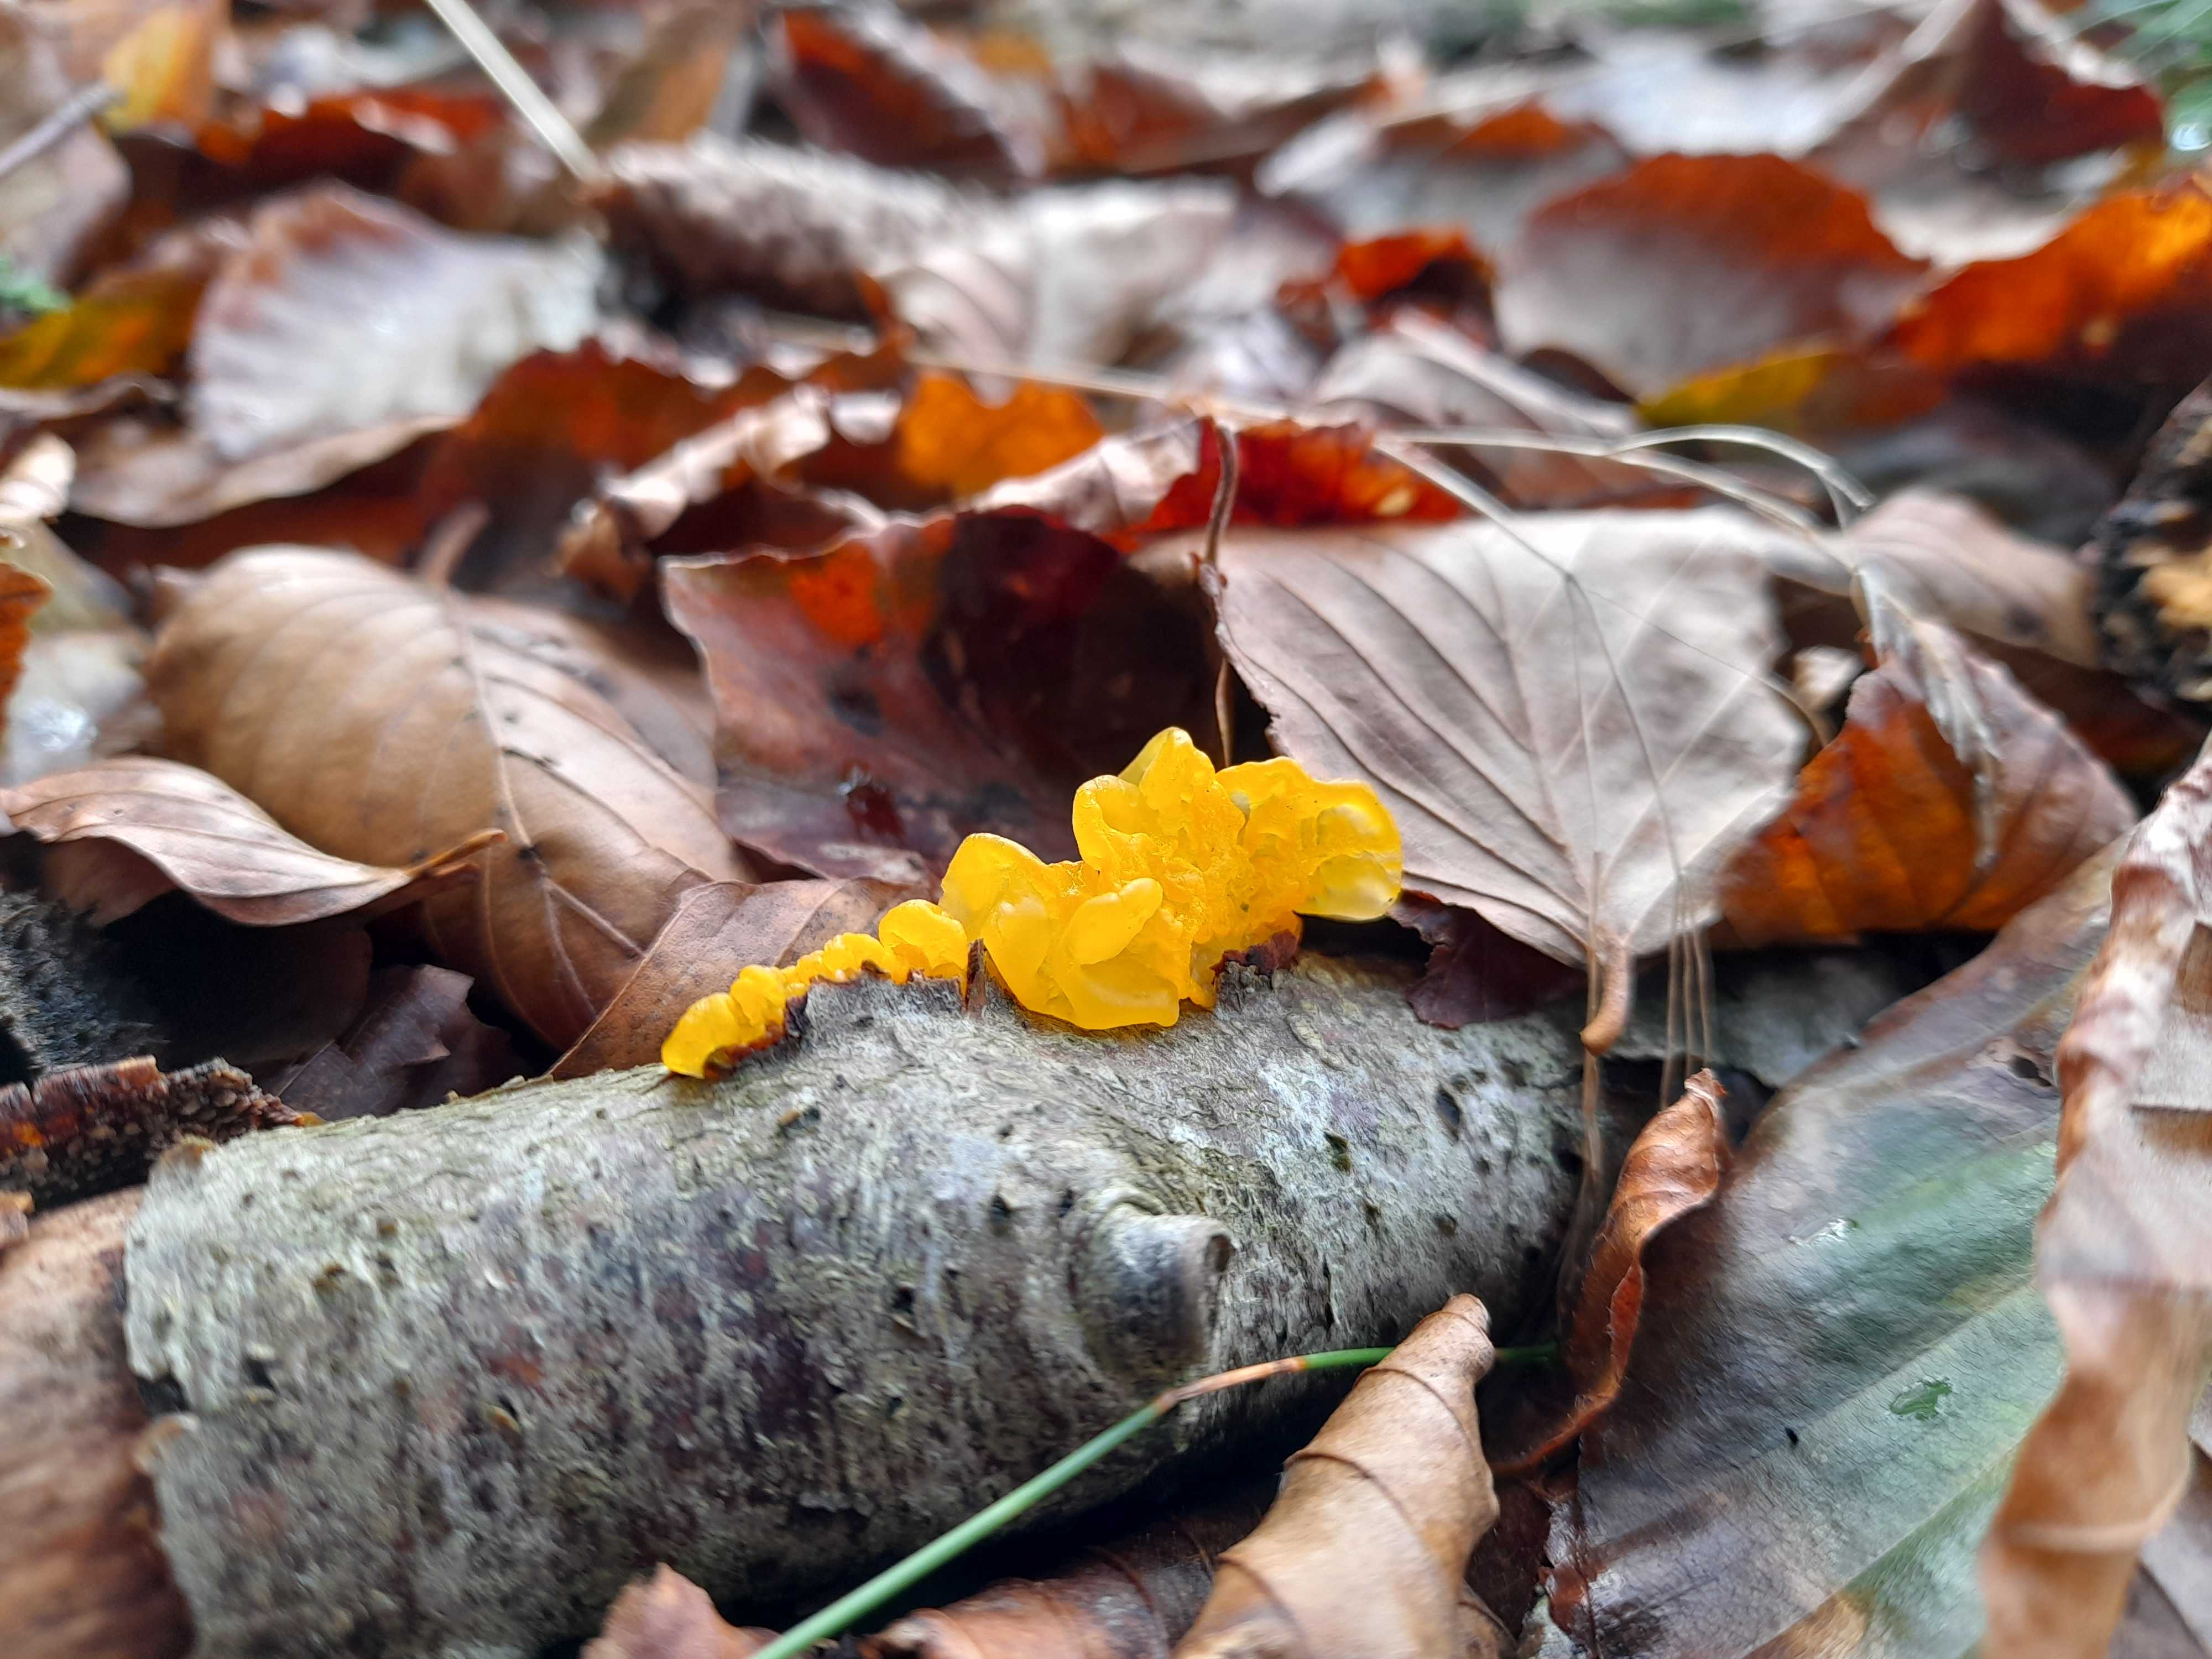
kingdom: Fungi
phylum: Basidiomycota
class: Tremellomycetes
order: Tremellales
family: Tremellaceae
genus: Tremella
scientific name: Tremella mesenterica
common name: gul bævresvamp
